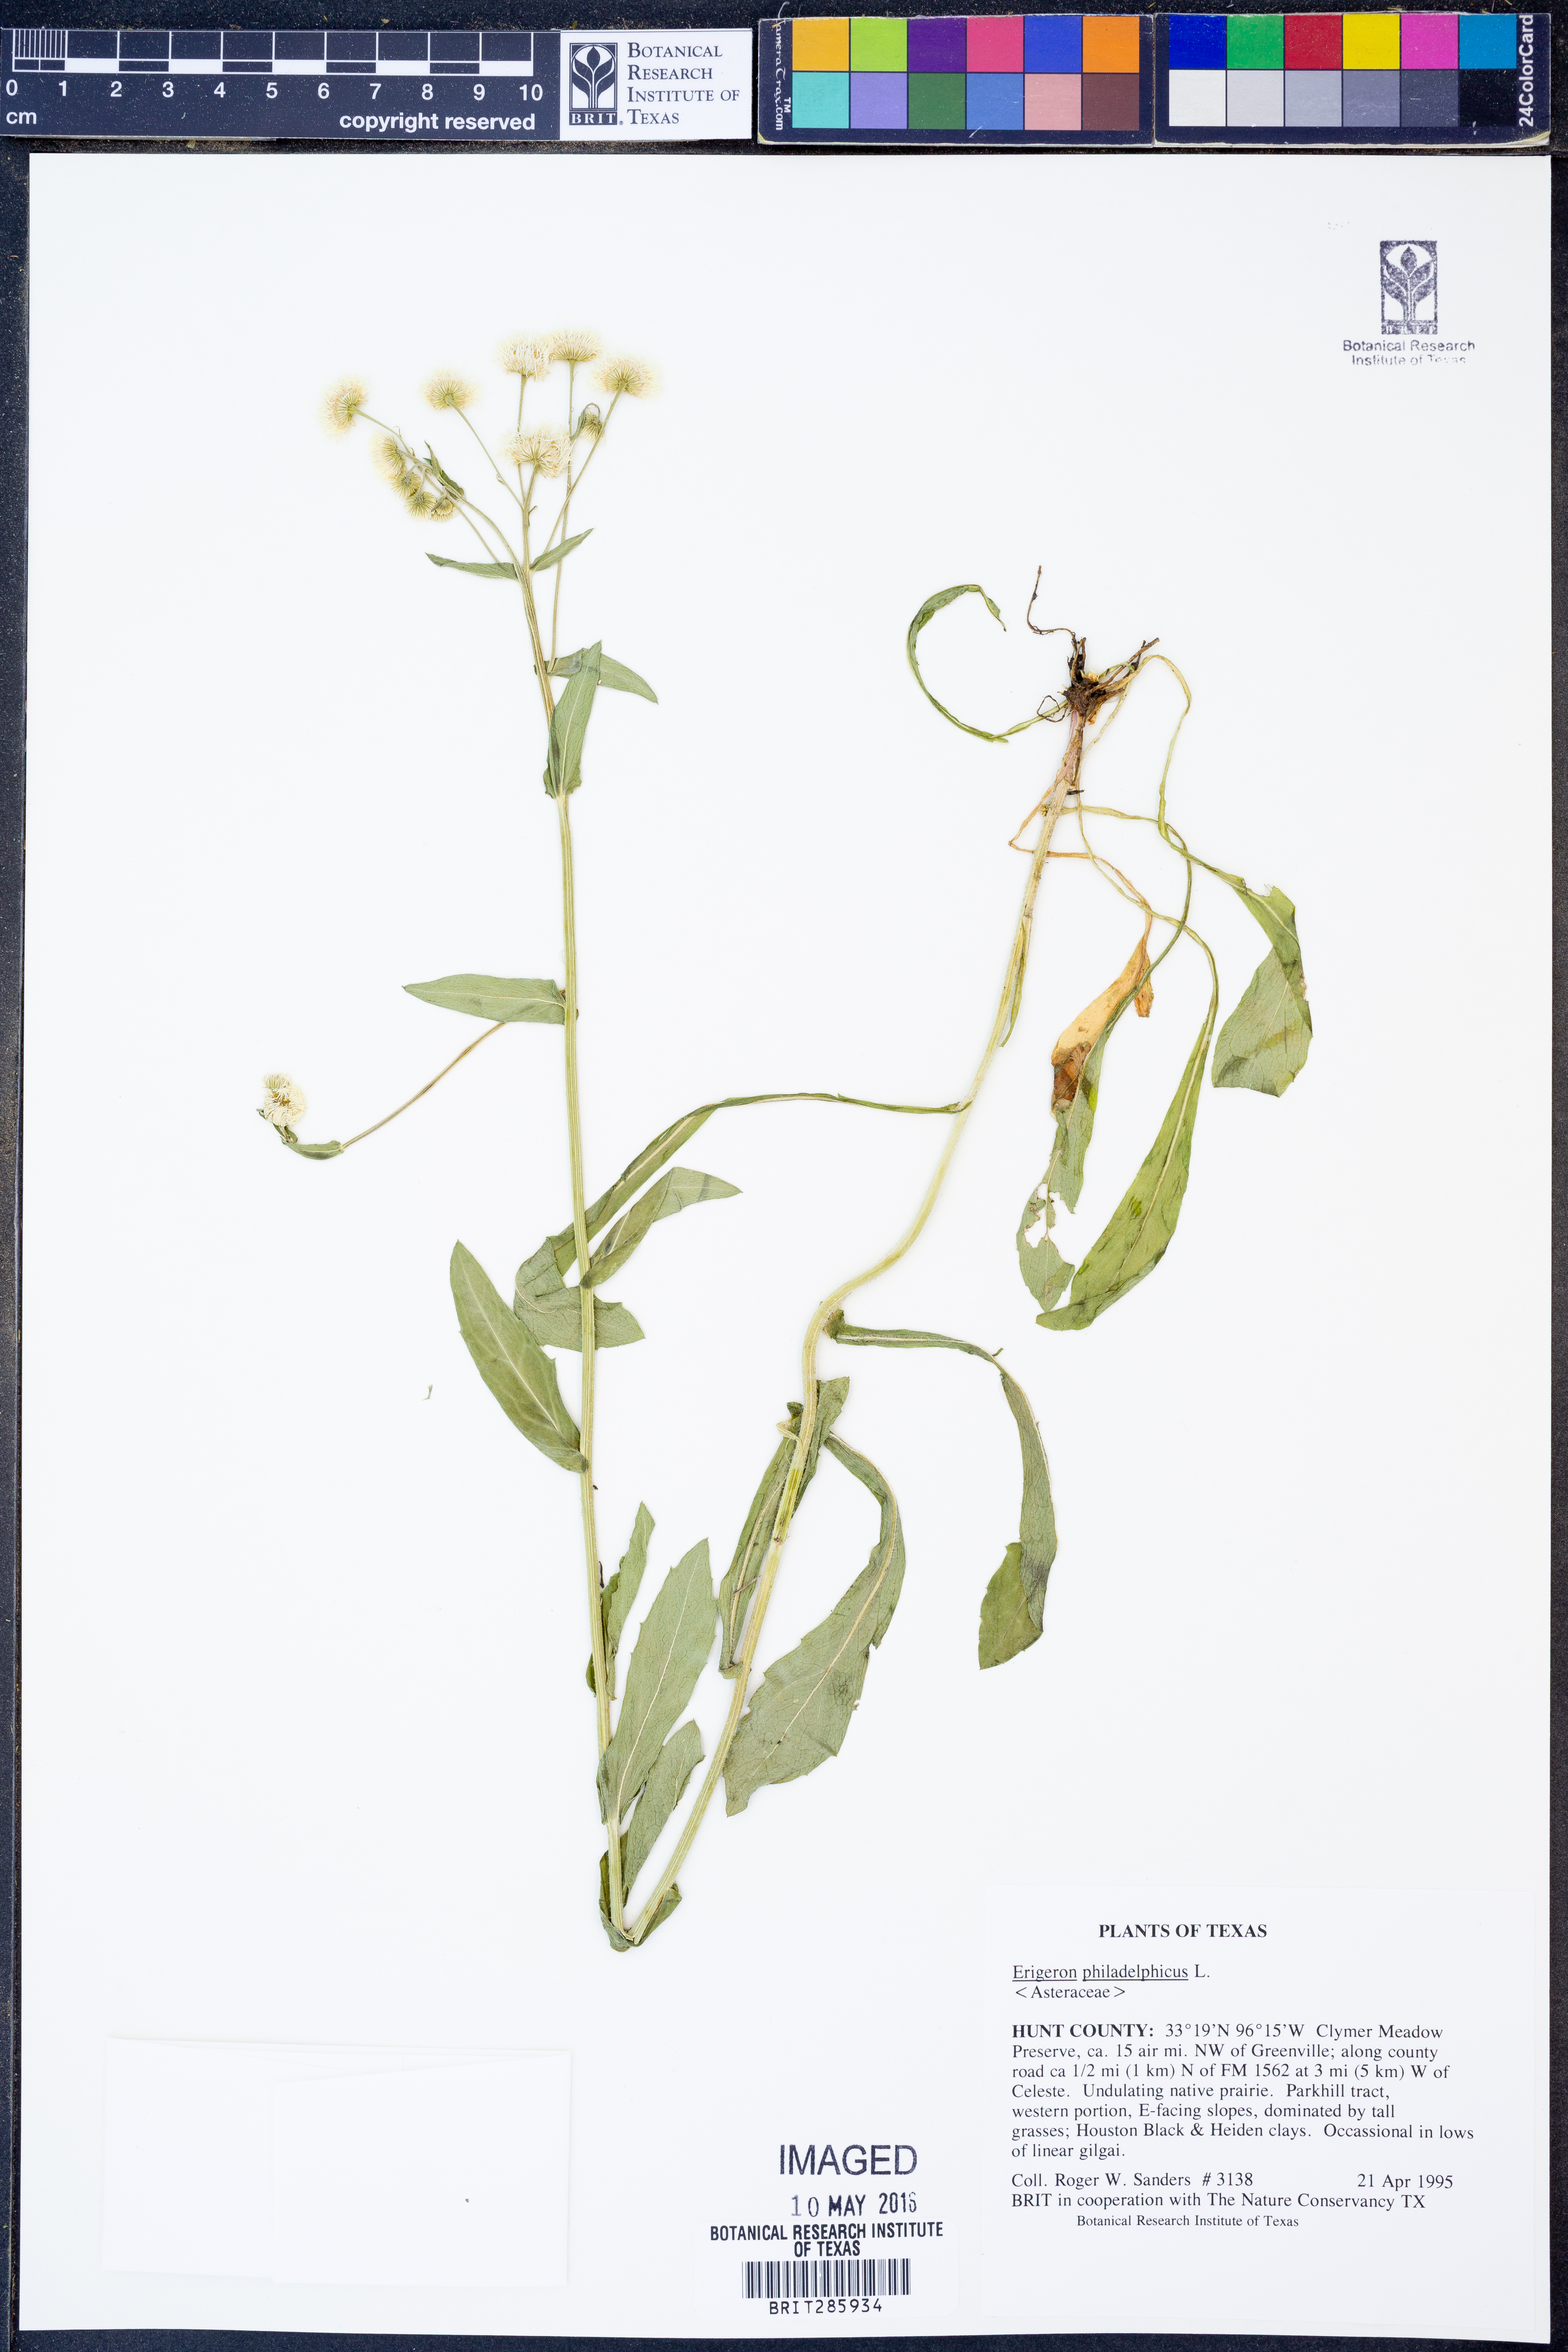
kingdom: Plantae
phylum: Tracheophyta
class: Magnoliopsida
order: Asterales
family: Asteraceae
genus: Erigeron
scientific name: Erigeron philadelphicus
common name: Robin's-plantain
